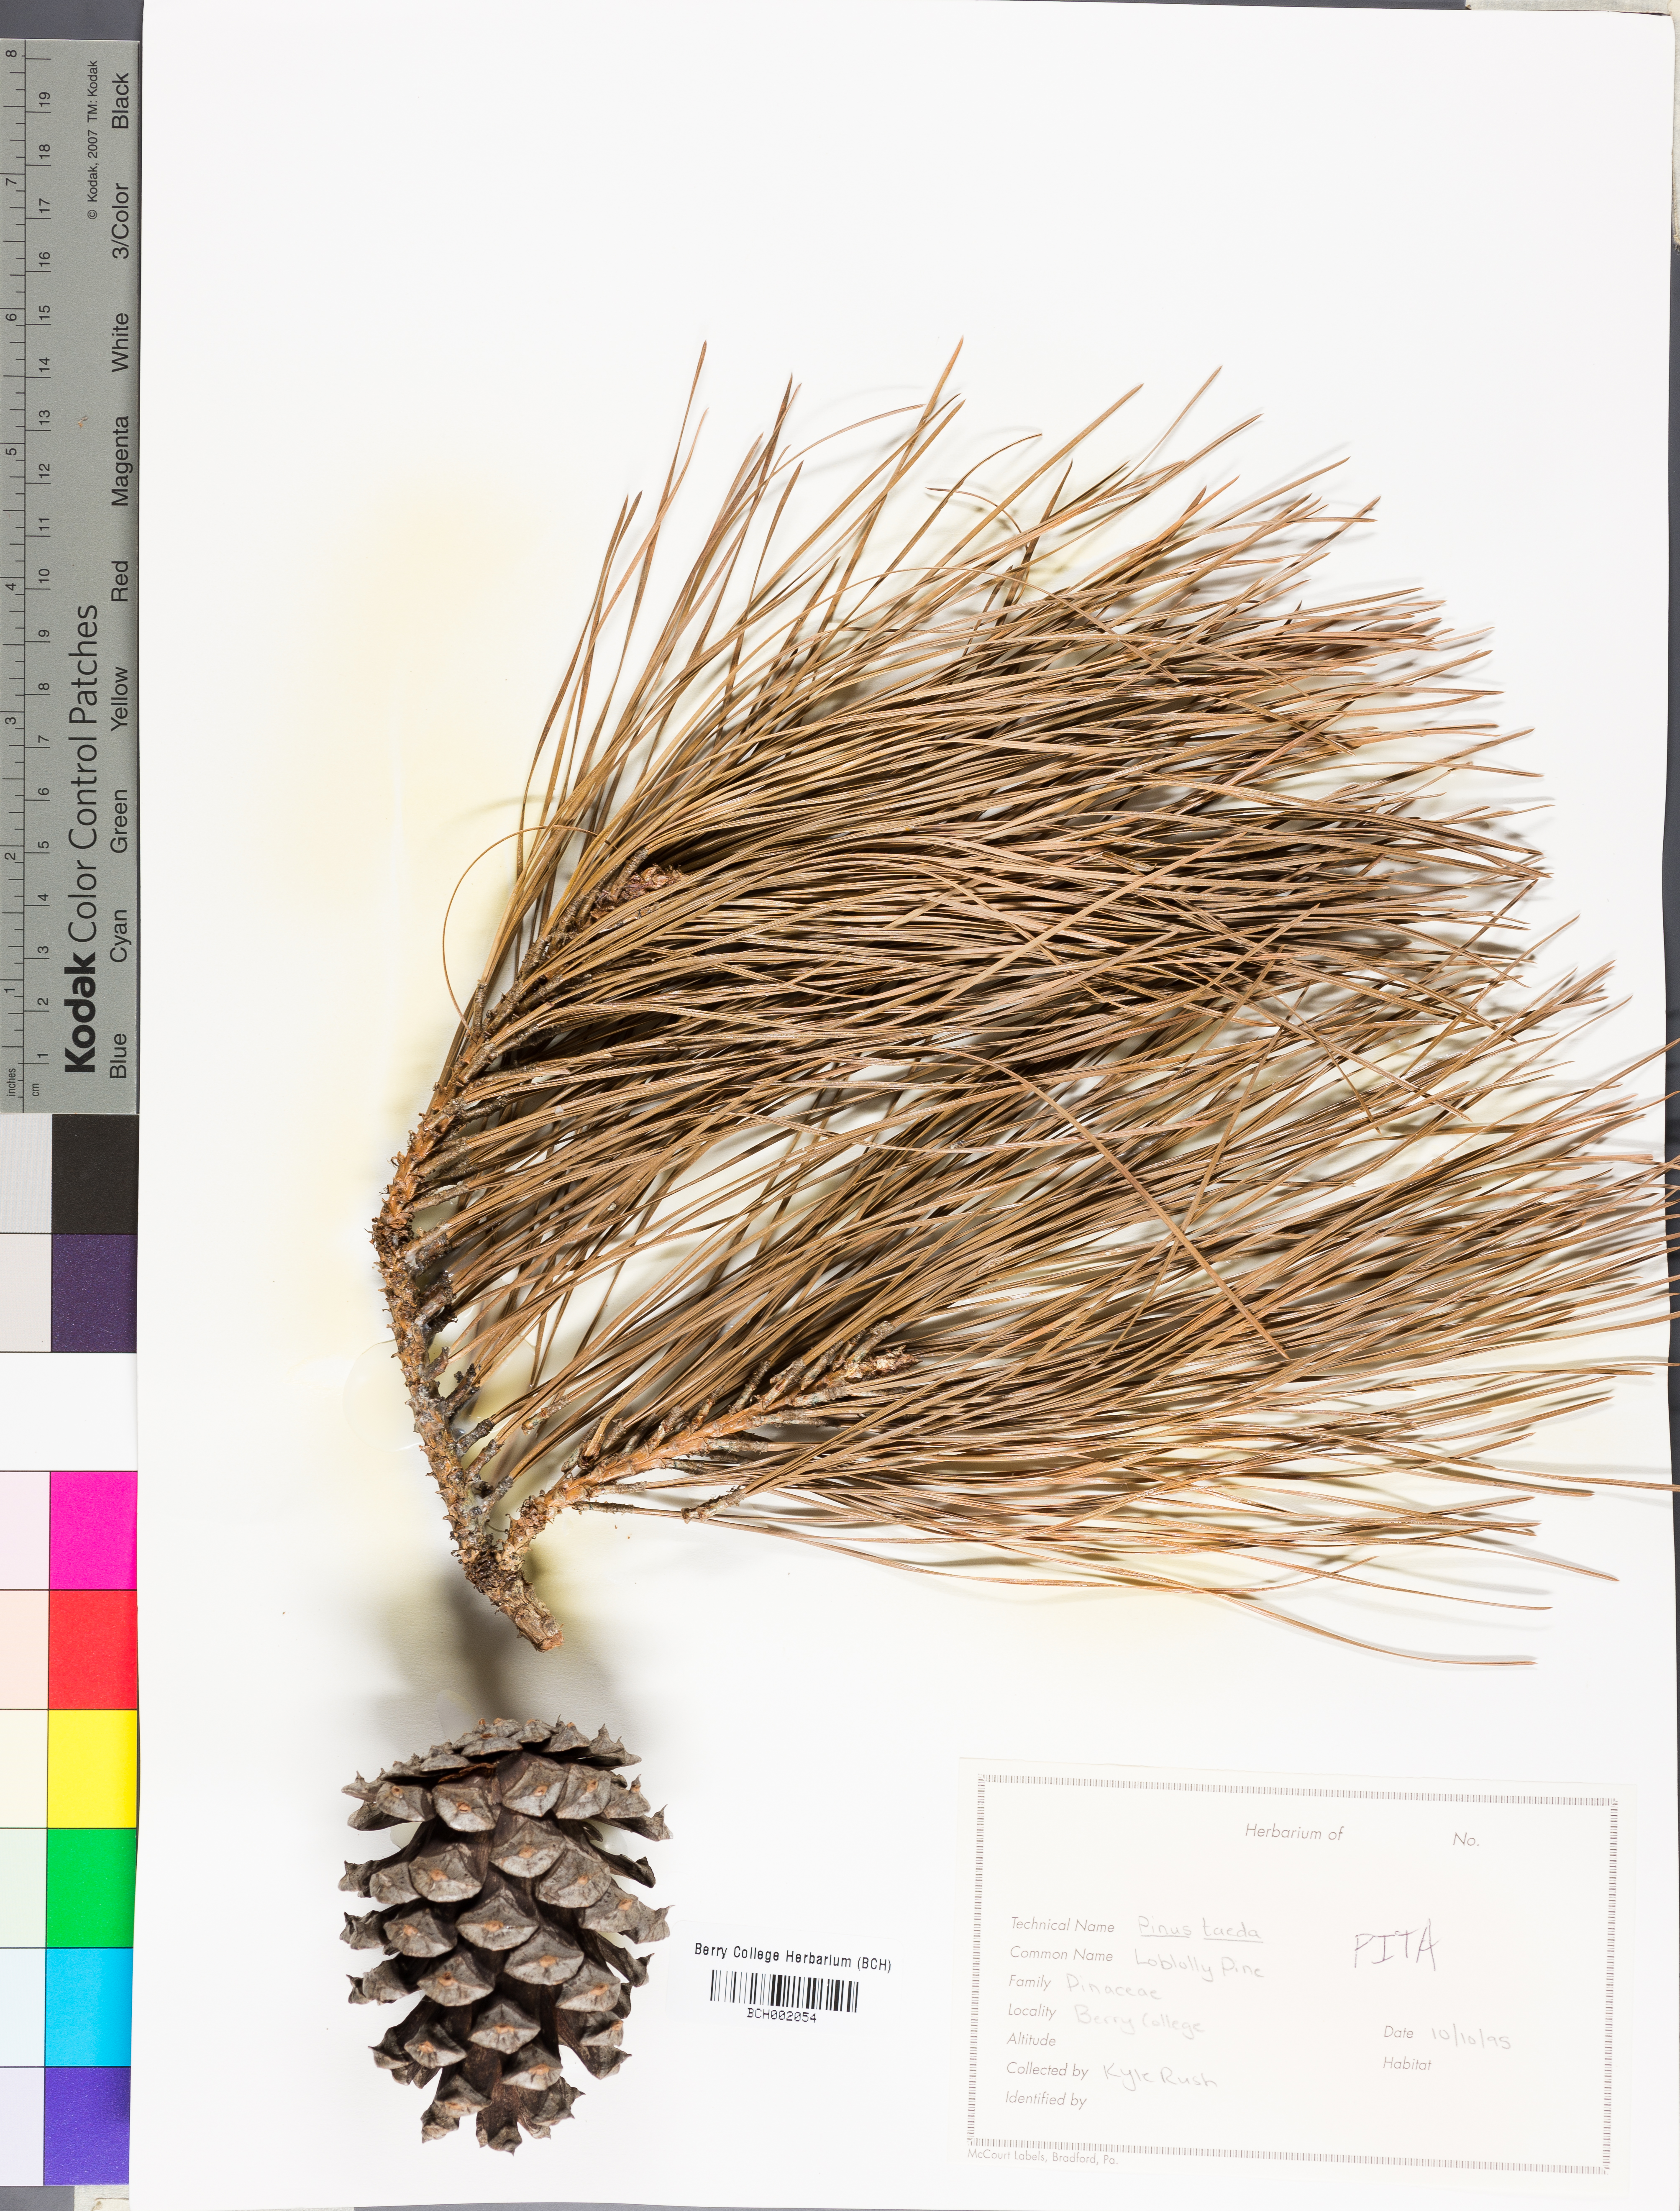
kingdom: Plantae
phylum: Tracheophyta
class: Pinopsida
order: Pinales
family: Pinaceae
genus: Pinus
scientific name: Pinus taeda
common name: Loblolly pine
